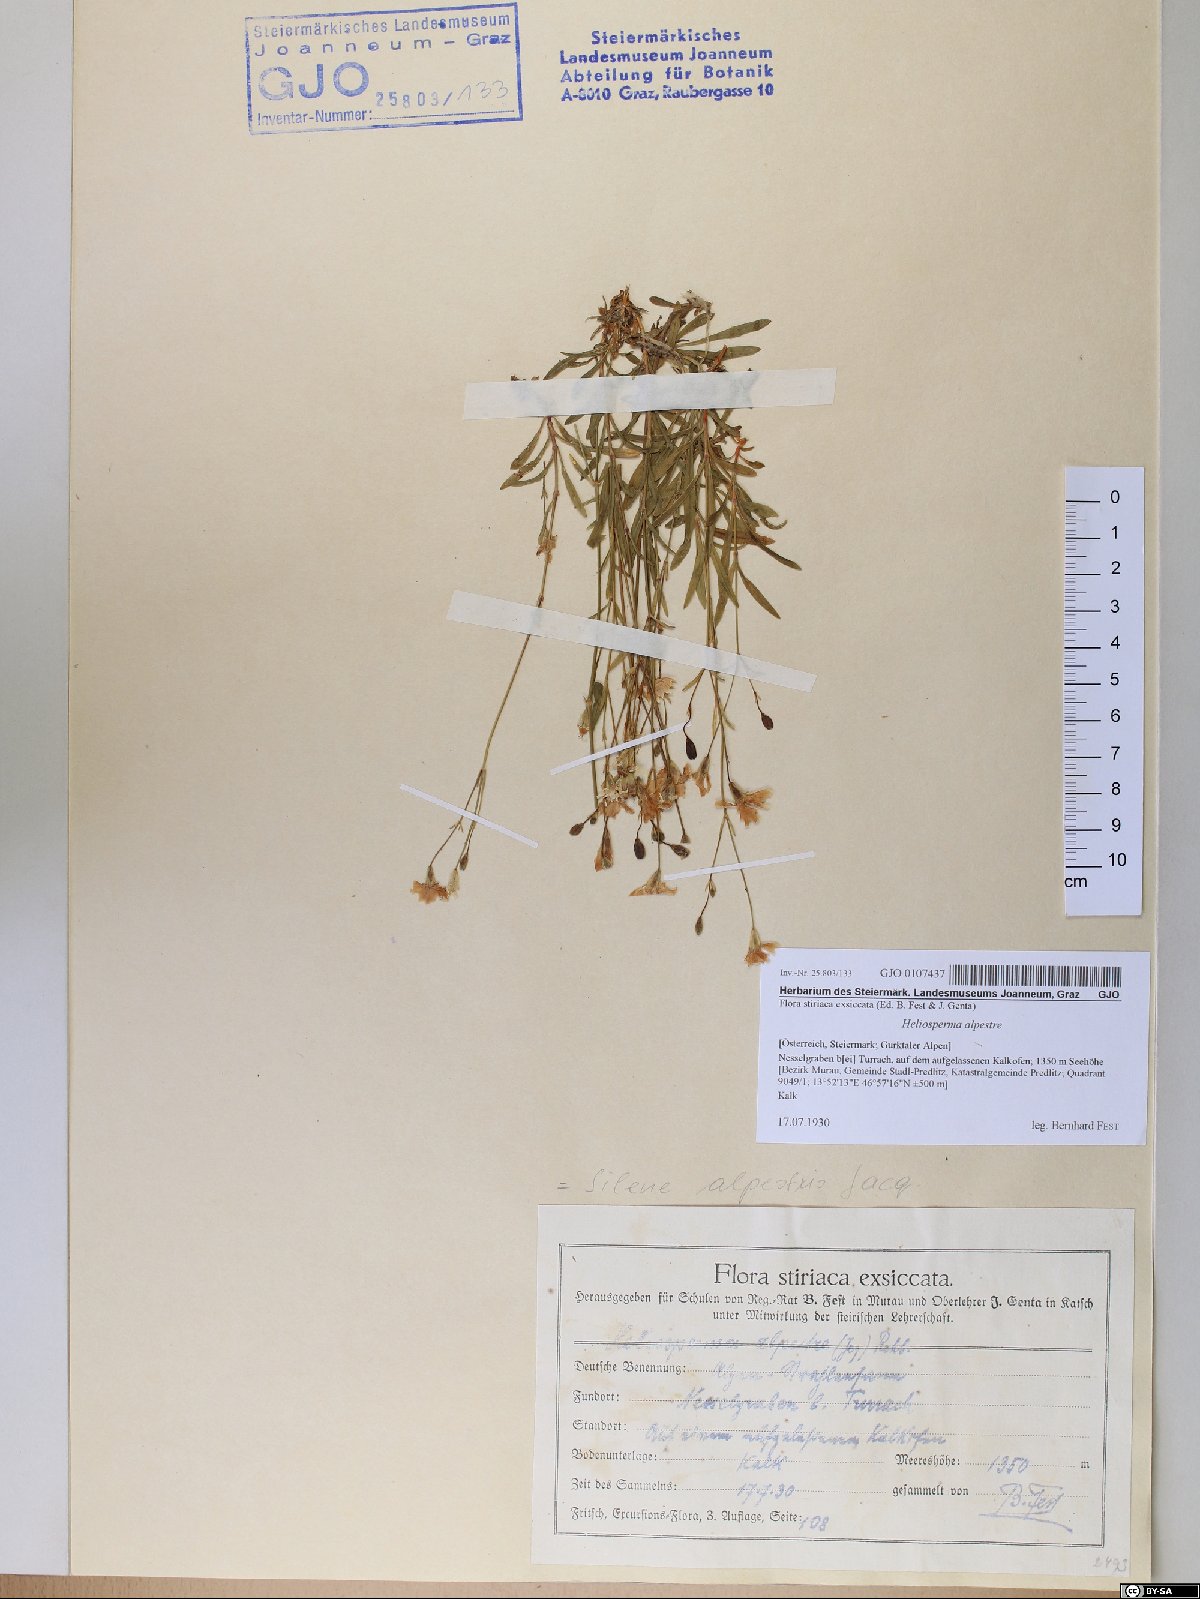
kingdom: Plantae
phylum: Tracheophyta
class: Magnoliopsida
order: Caryophyllales
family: Caryophyllaceae
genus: Heliosperma
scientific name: Heliosperma alpestre
